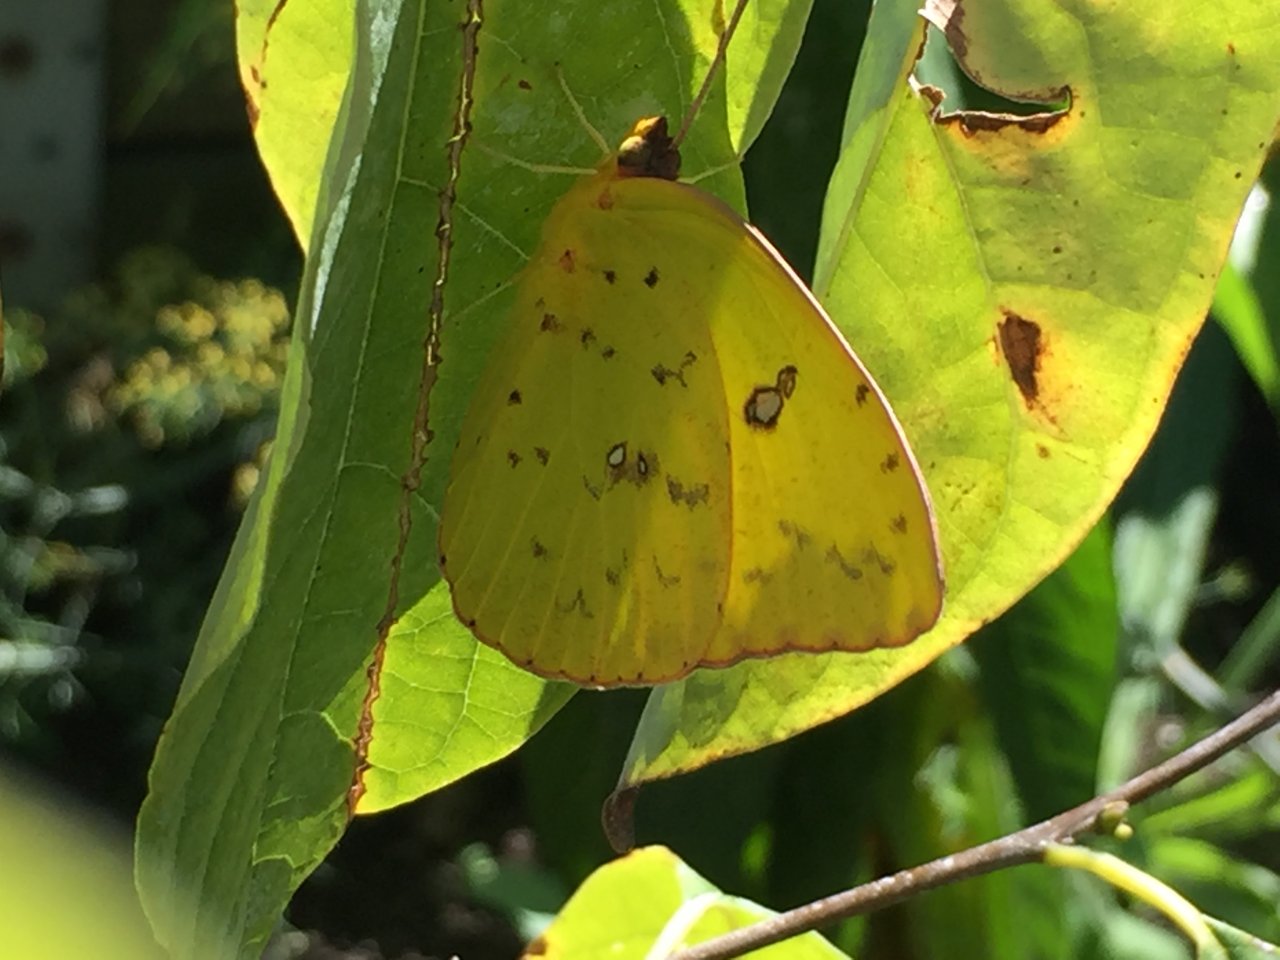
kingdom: Animalia
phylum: Arthropoda
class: Insecta
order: Lepidoptera
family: Pieridae
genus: Phoebis
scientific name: Phoebis sennae
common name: Cloudless Sulphur
